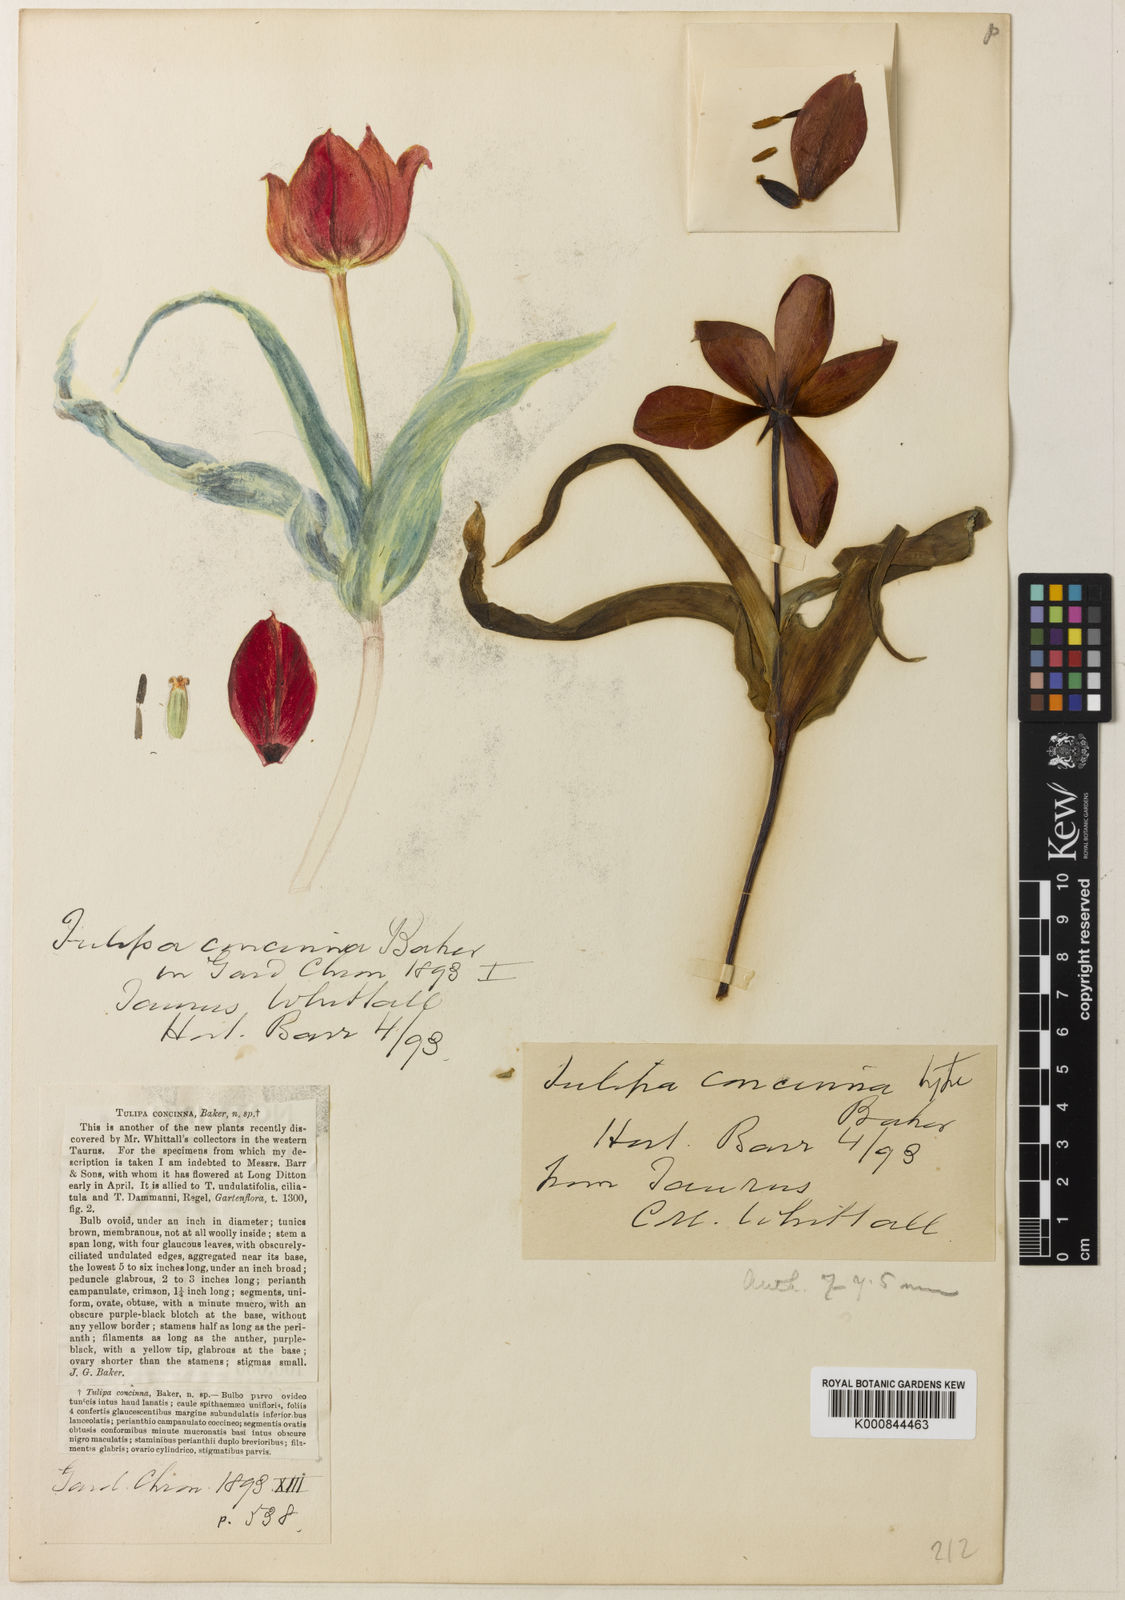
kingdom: Plantae
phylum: Tracheophyta
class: Liliopsida
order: Liliales
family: Liliaceae
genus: Tulipa
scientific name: Tulipa foliosa
